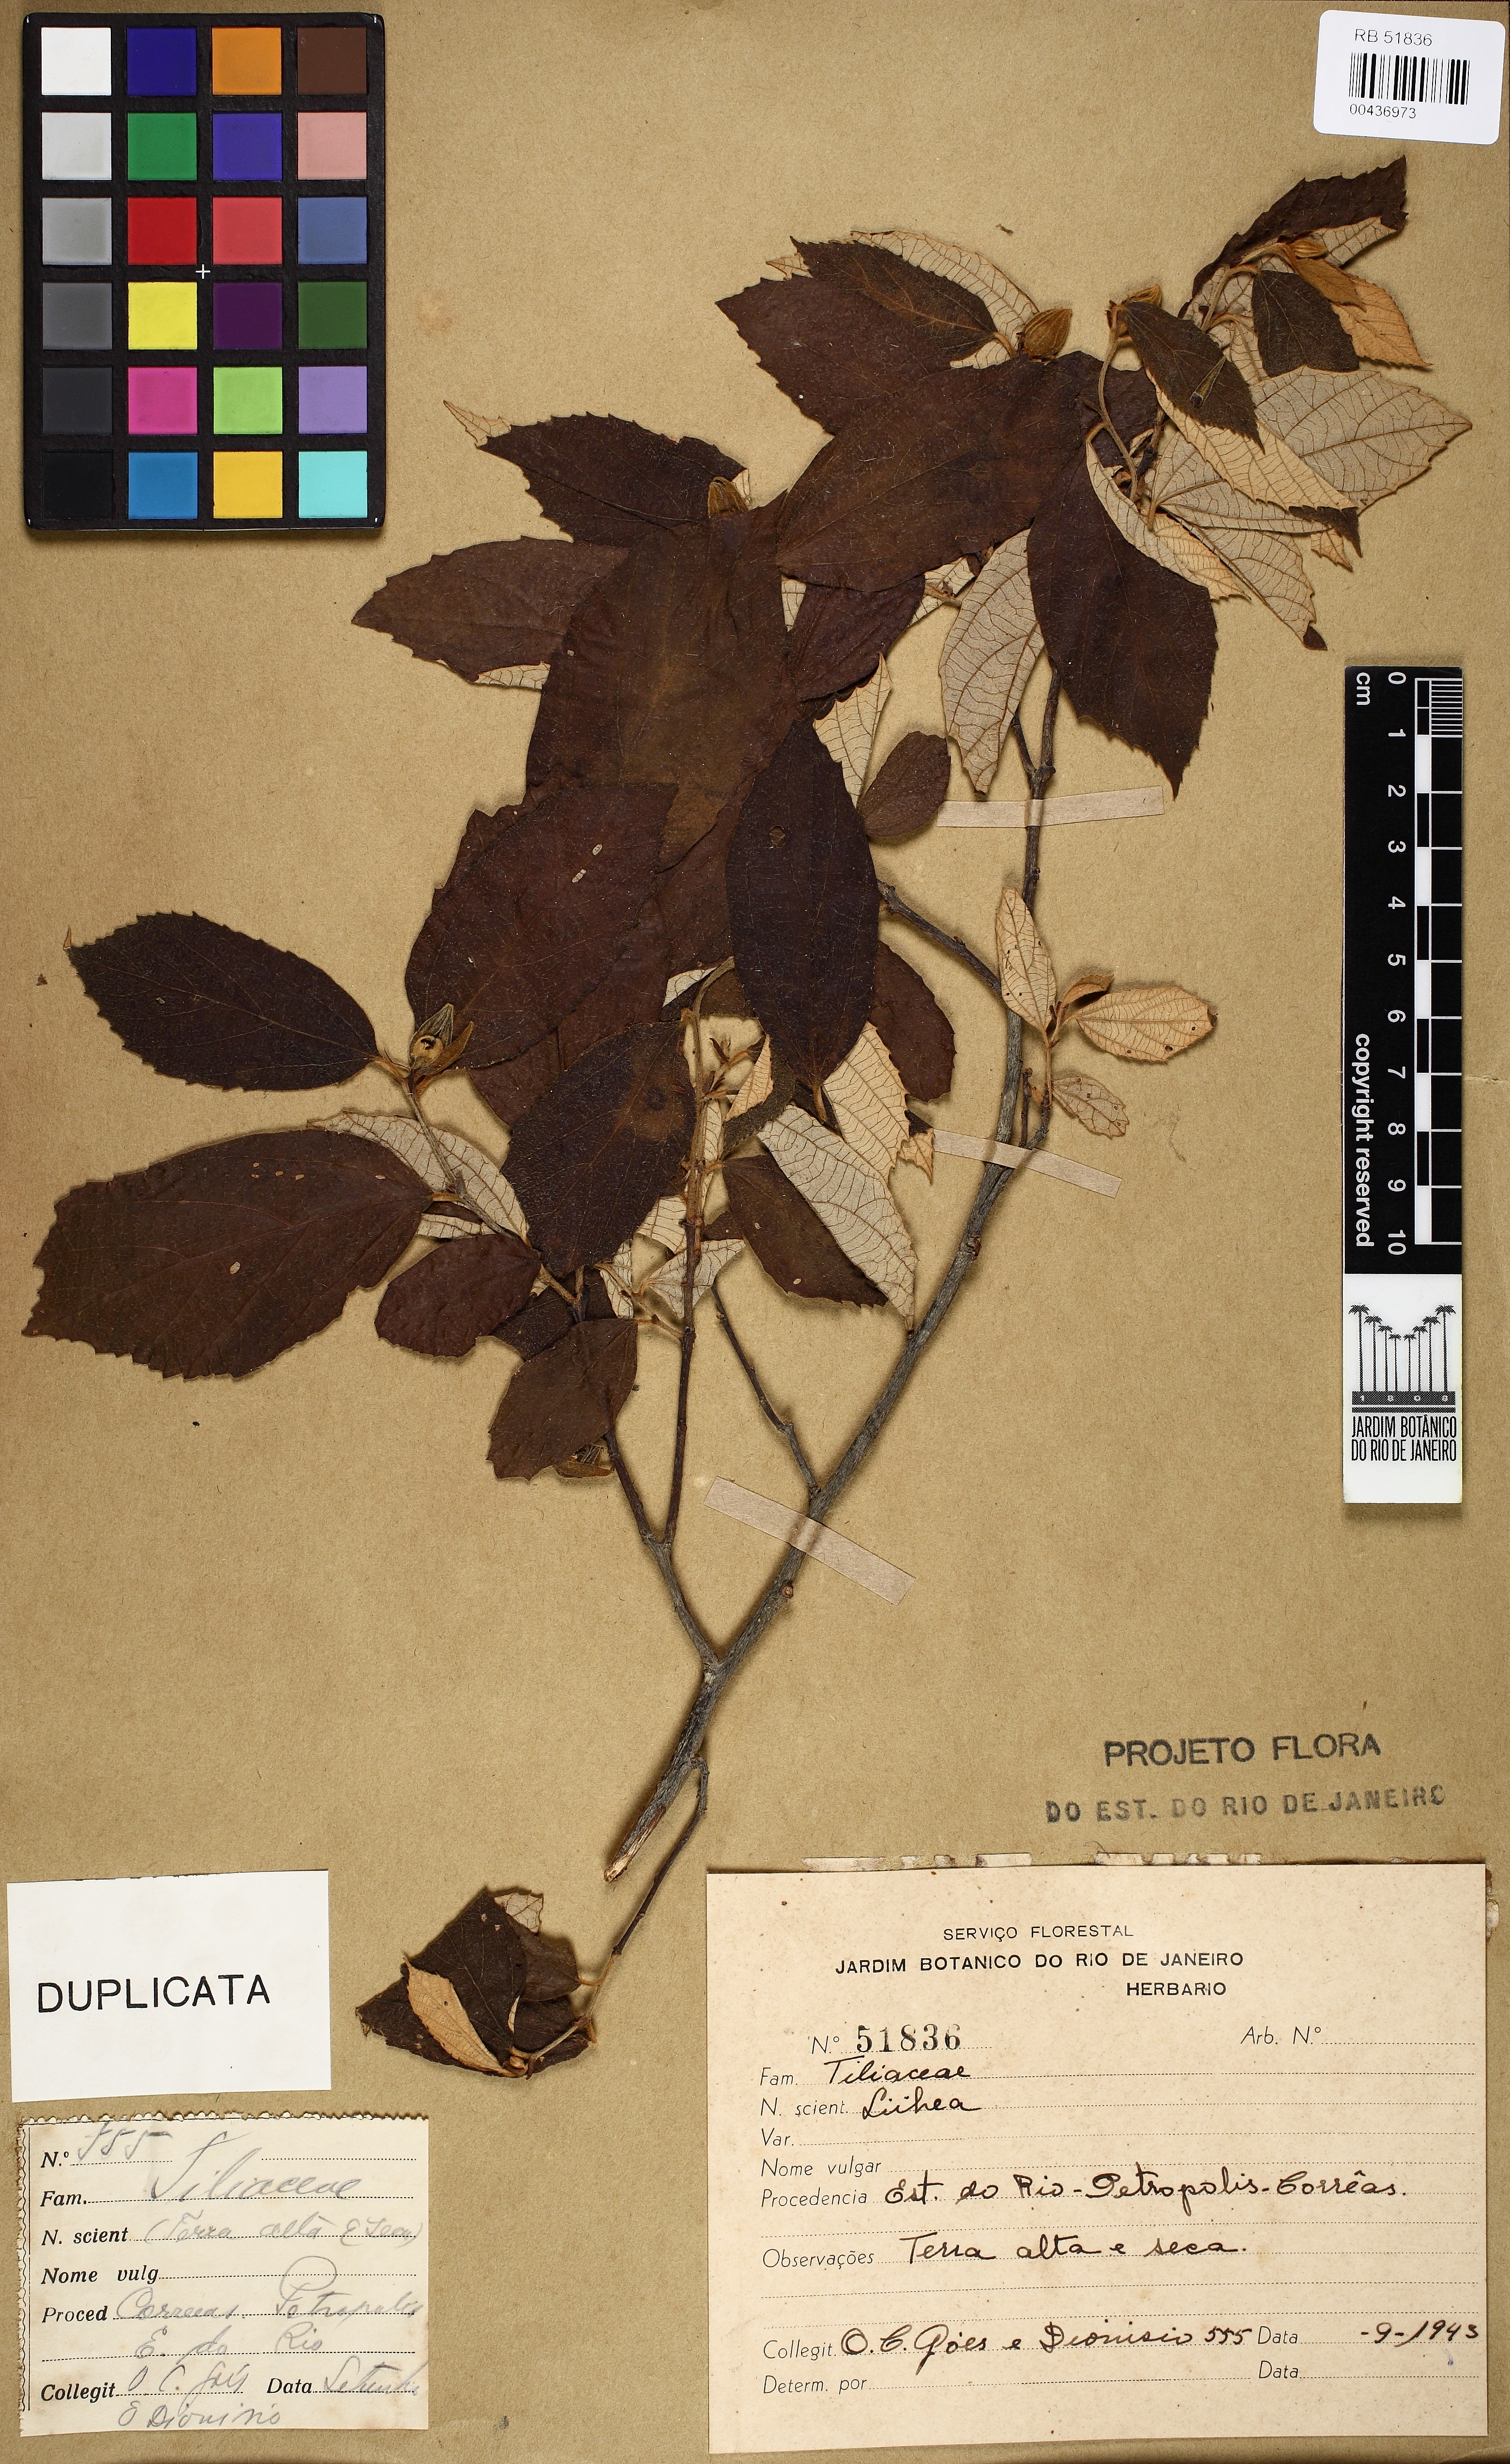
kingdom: Plantae
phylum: Tracheophyta
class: Magnoliopsida
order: Malvales
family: Malvaceae
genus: Luehea
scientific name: Luehea candicans
